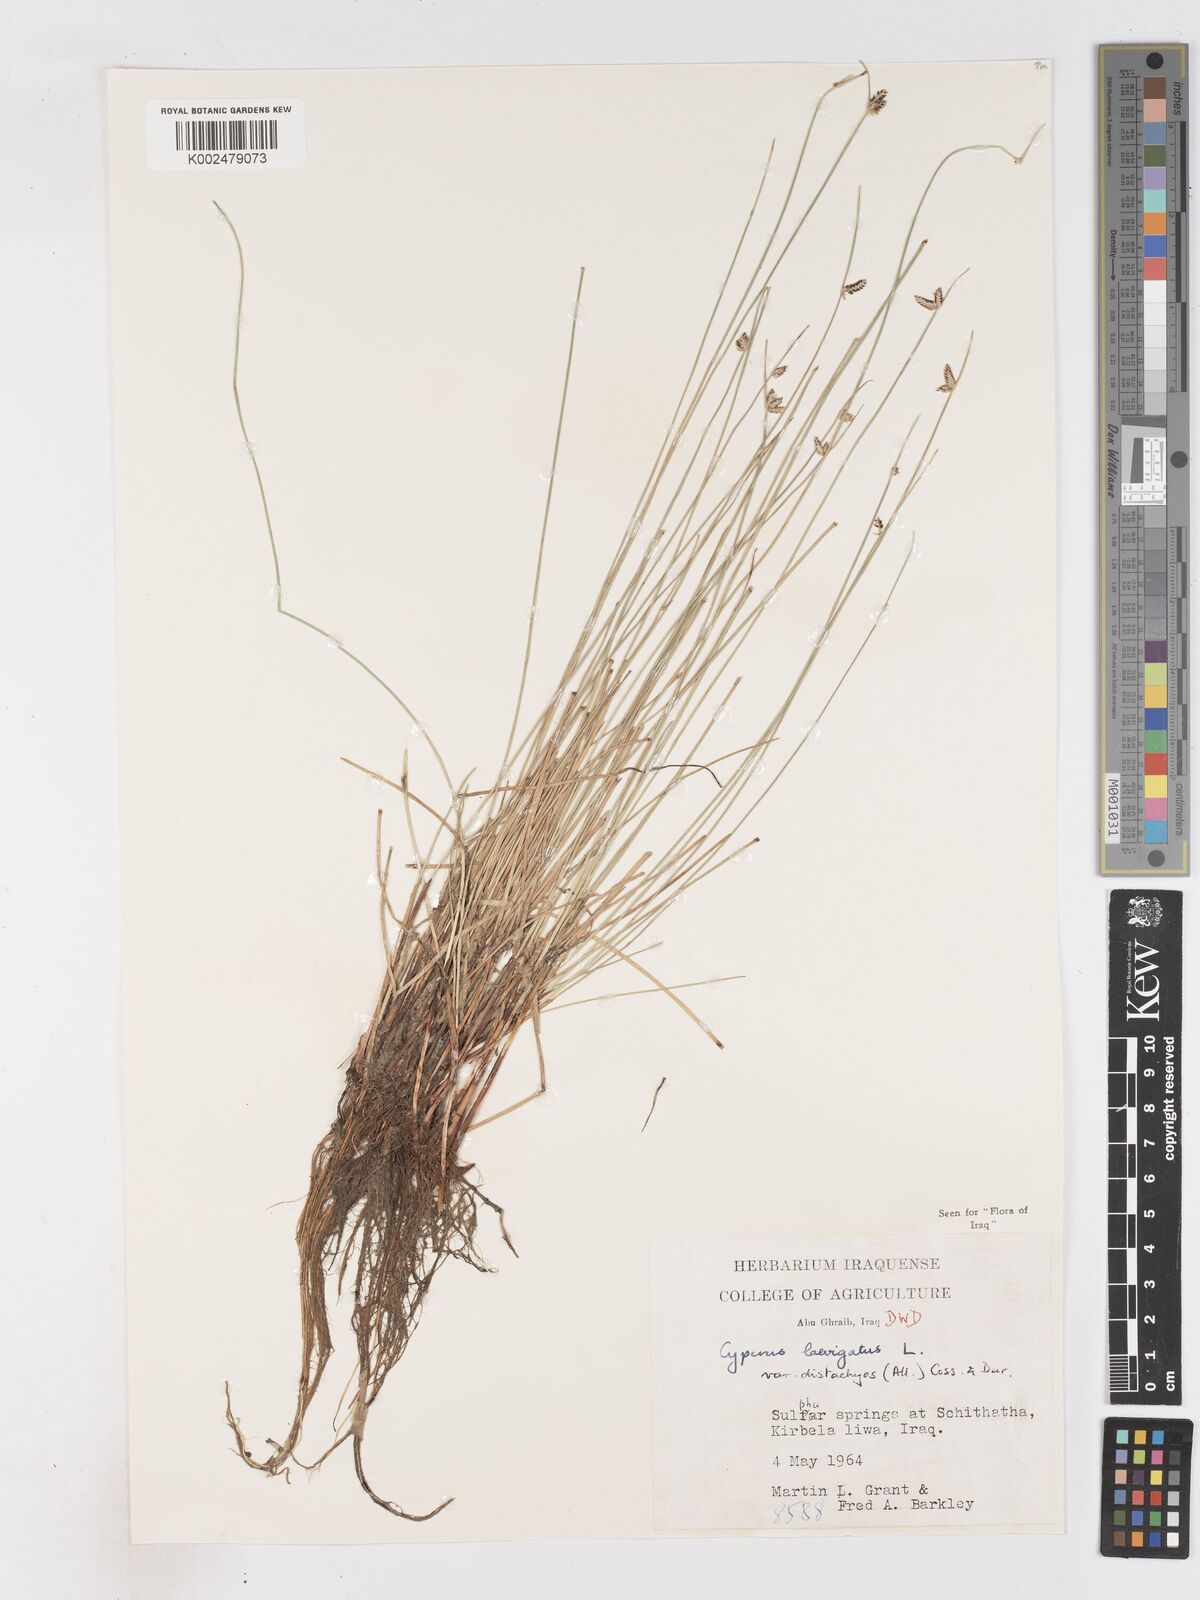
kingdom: Plantae
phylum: Tracheophyta
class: Liliopsida
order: Poales
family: Cyperaceae
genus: Cyperus
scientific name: Cyperus laevigatus
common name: Smooth flat sedge
